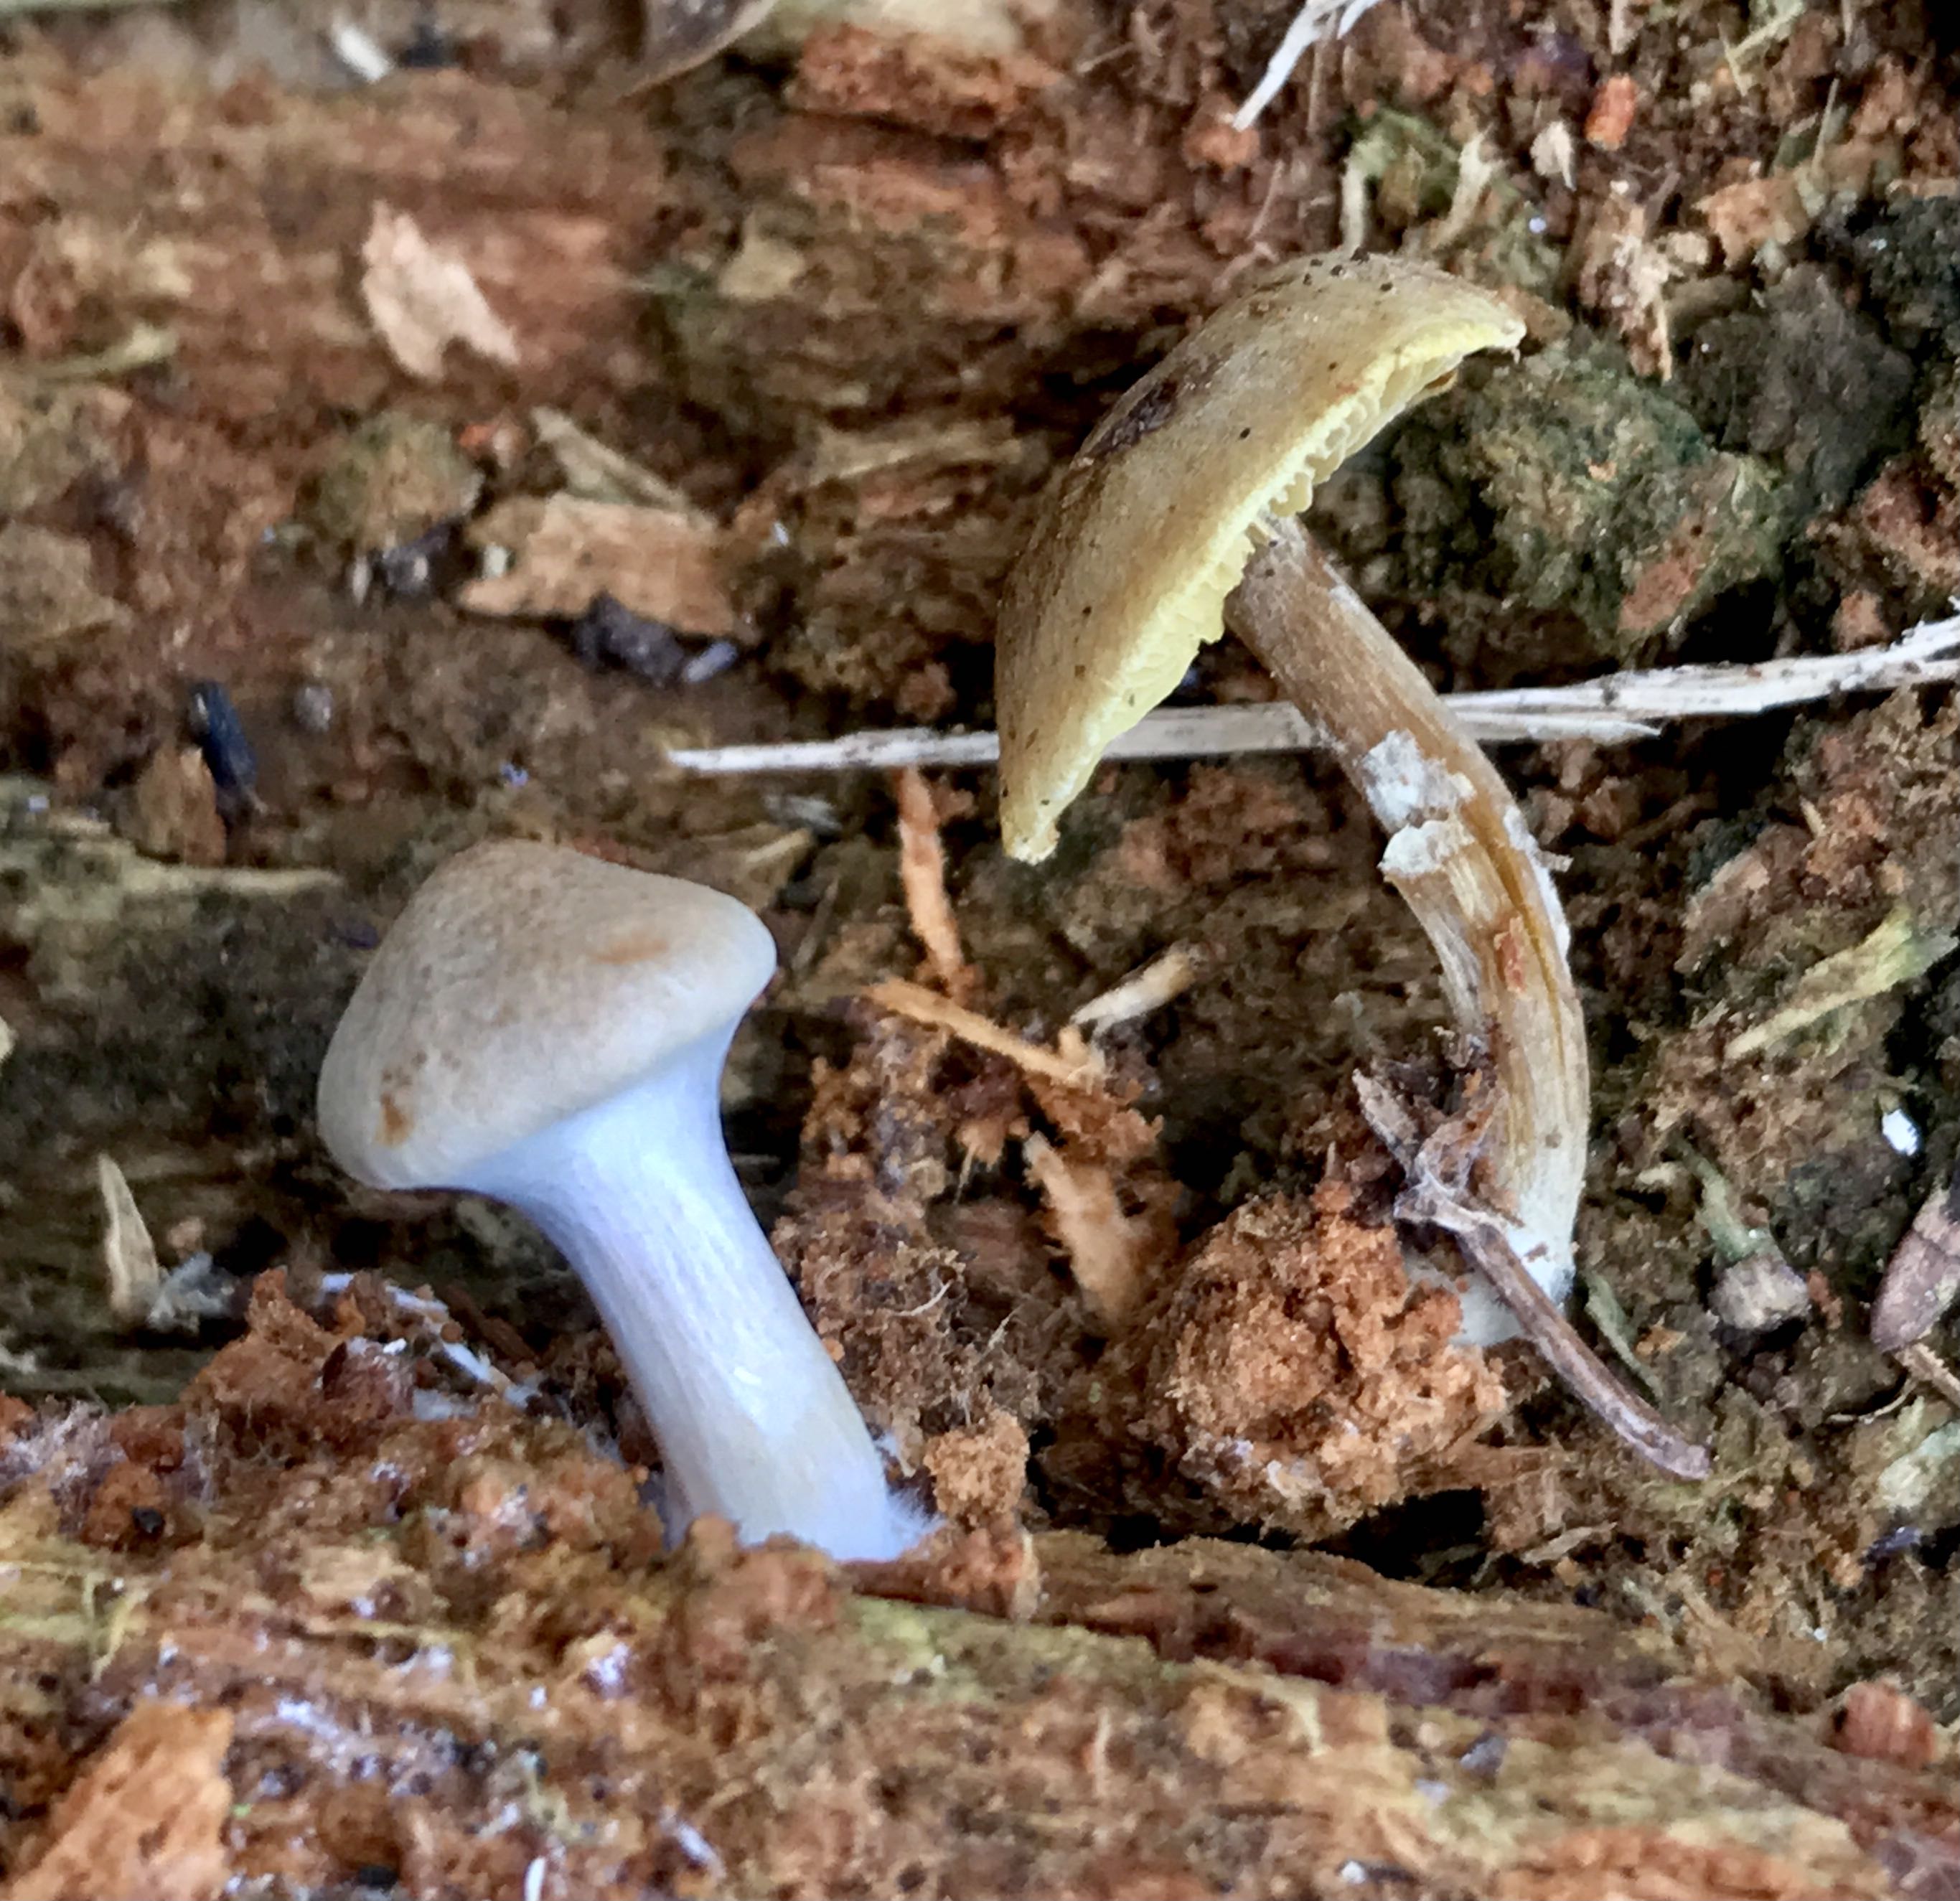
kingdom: Fungi
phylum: Basidiomycota
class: Agaricomycetes
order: Agaricales
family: Callistosporiaceae
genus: Callistosporium
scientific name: Callistosporium pinicola
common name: småsporet ravhat
